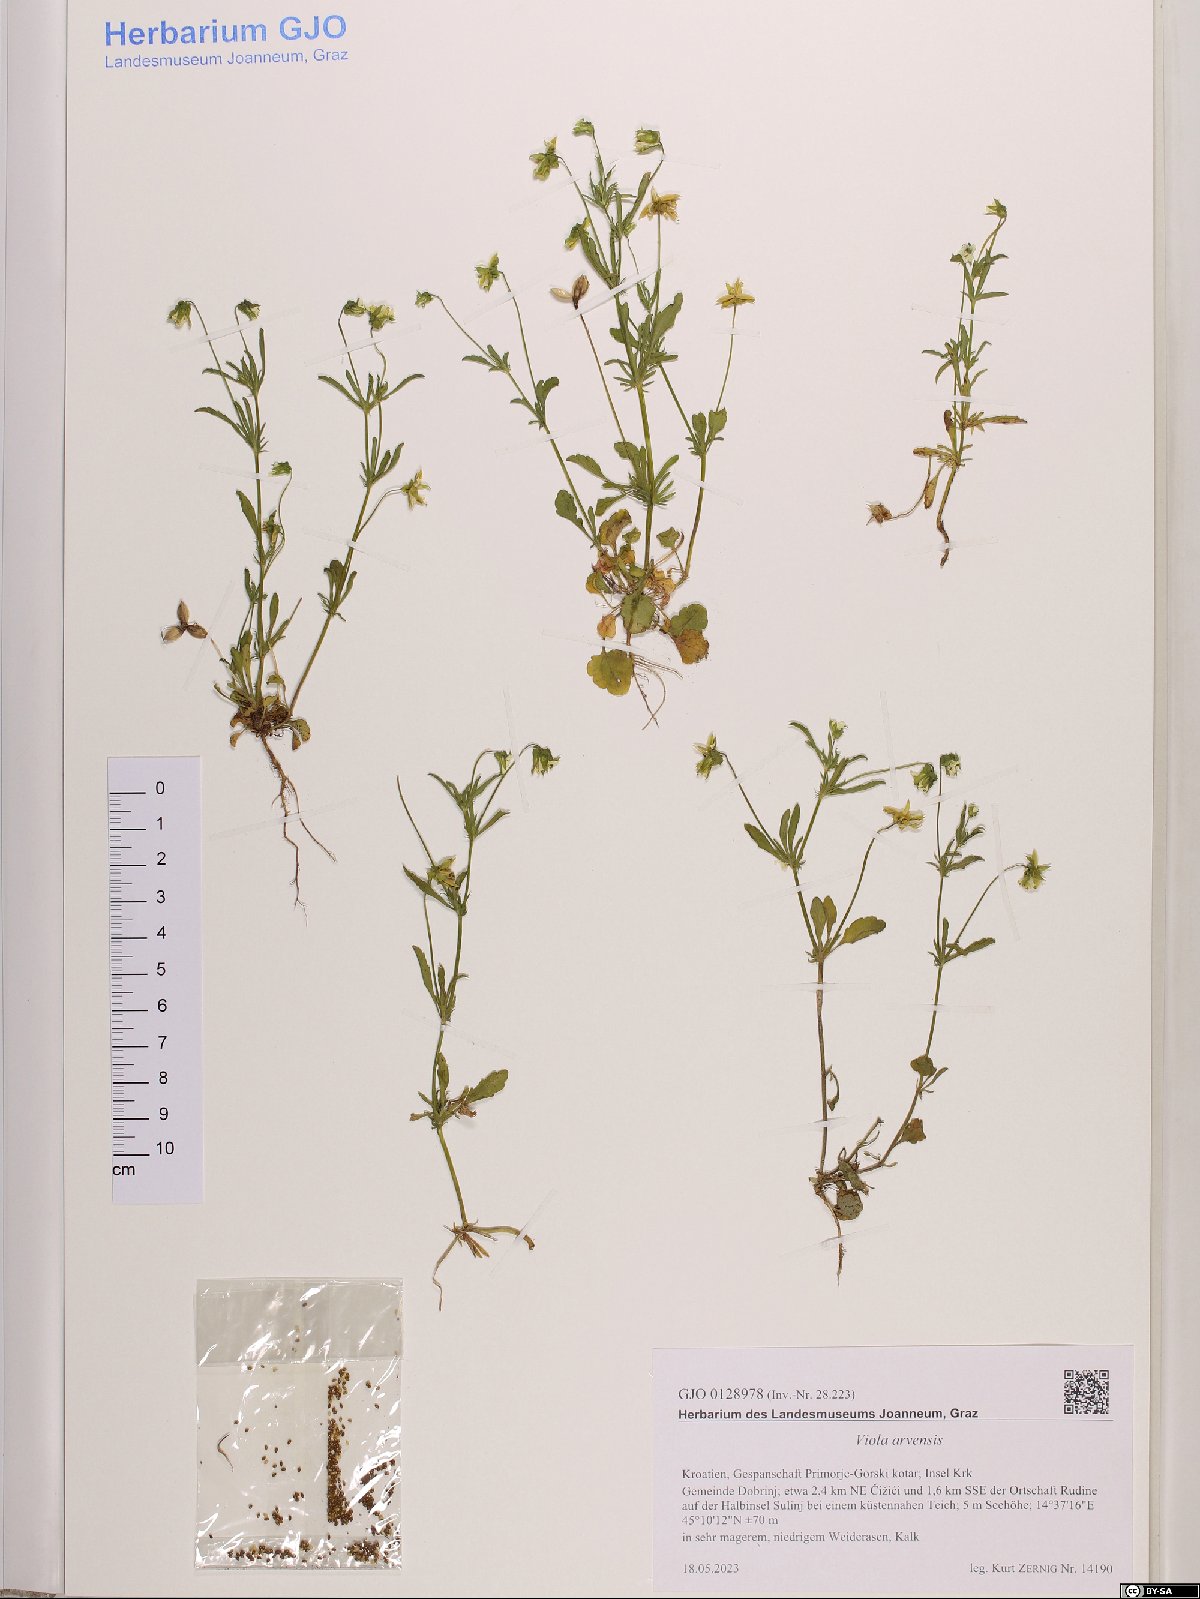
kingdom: Plantae
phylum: Tracheophyta
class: Magnoliopsida
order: Malpighiales
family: Violaceae
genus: Viola
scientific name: Viola arvensis
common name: Field pansy
